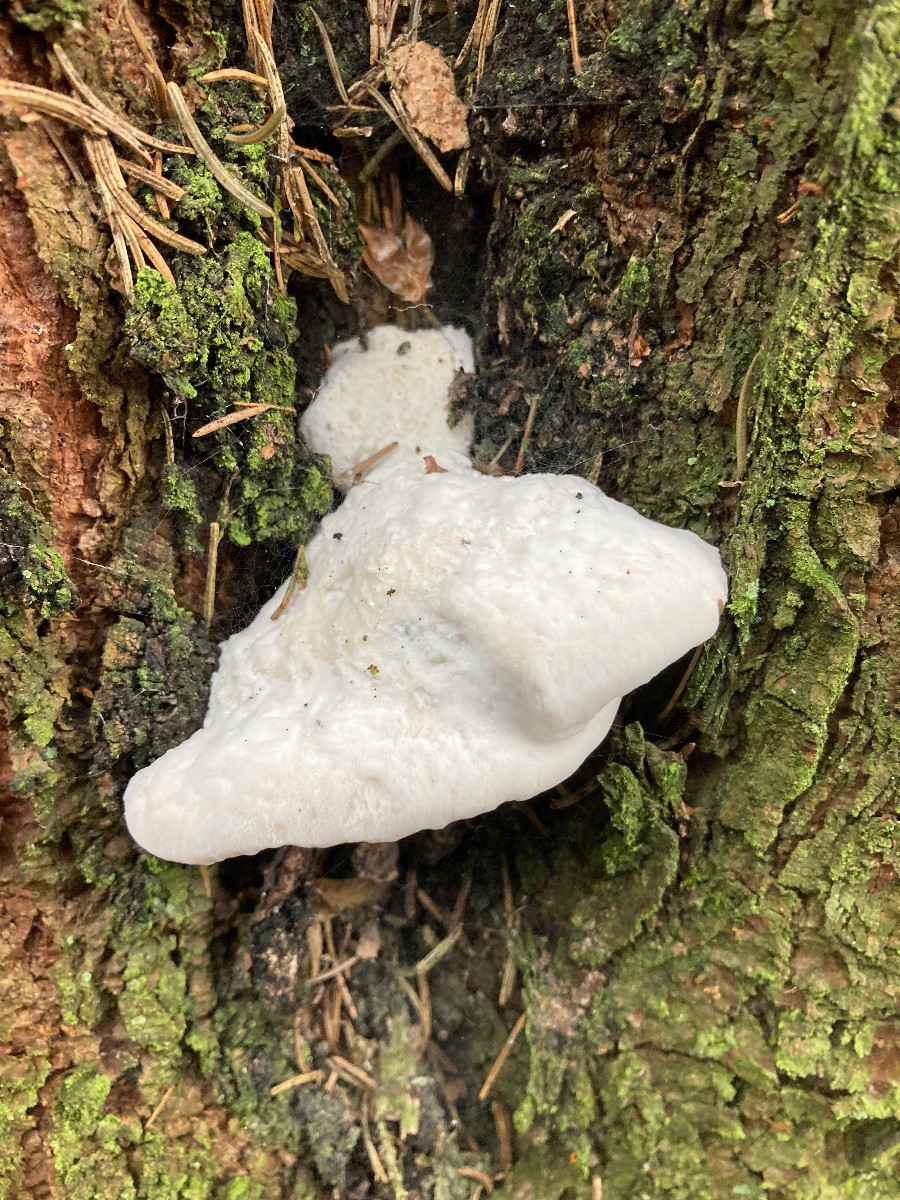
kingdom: Fungi
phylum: Basidiomycota
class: Agaricomycetes
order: Polyporales
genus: Amaropostia
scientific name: Amaropostia stiptica
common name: bitter kødporesvamp
